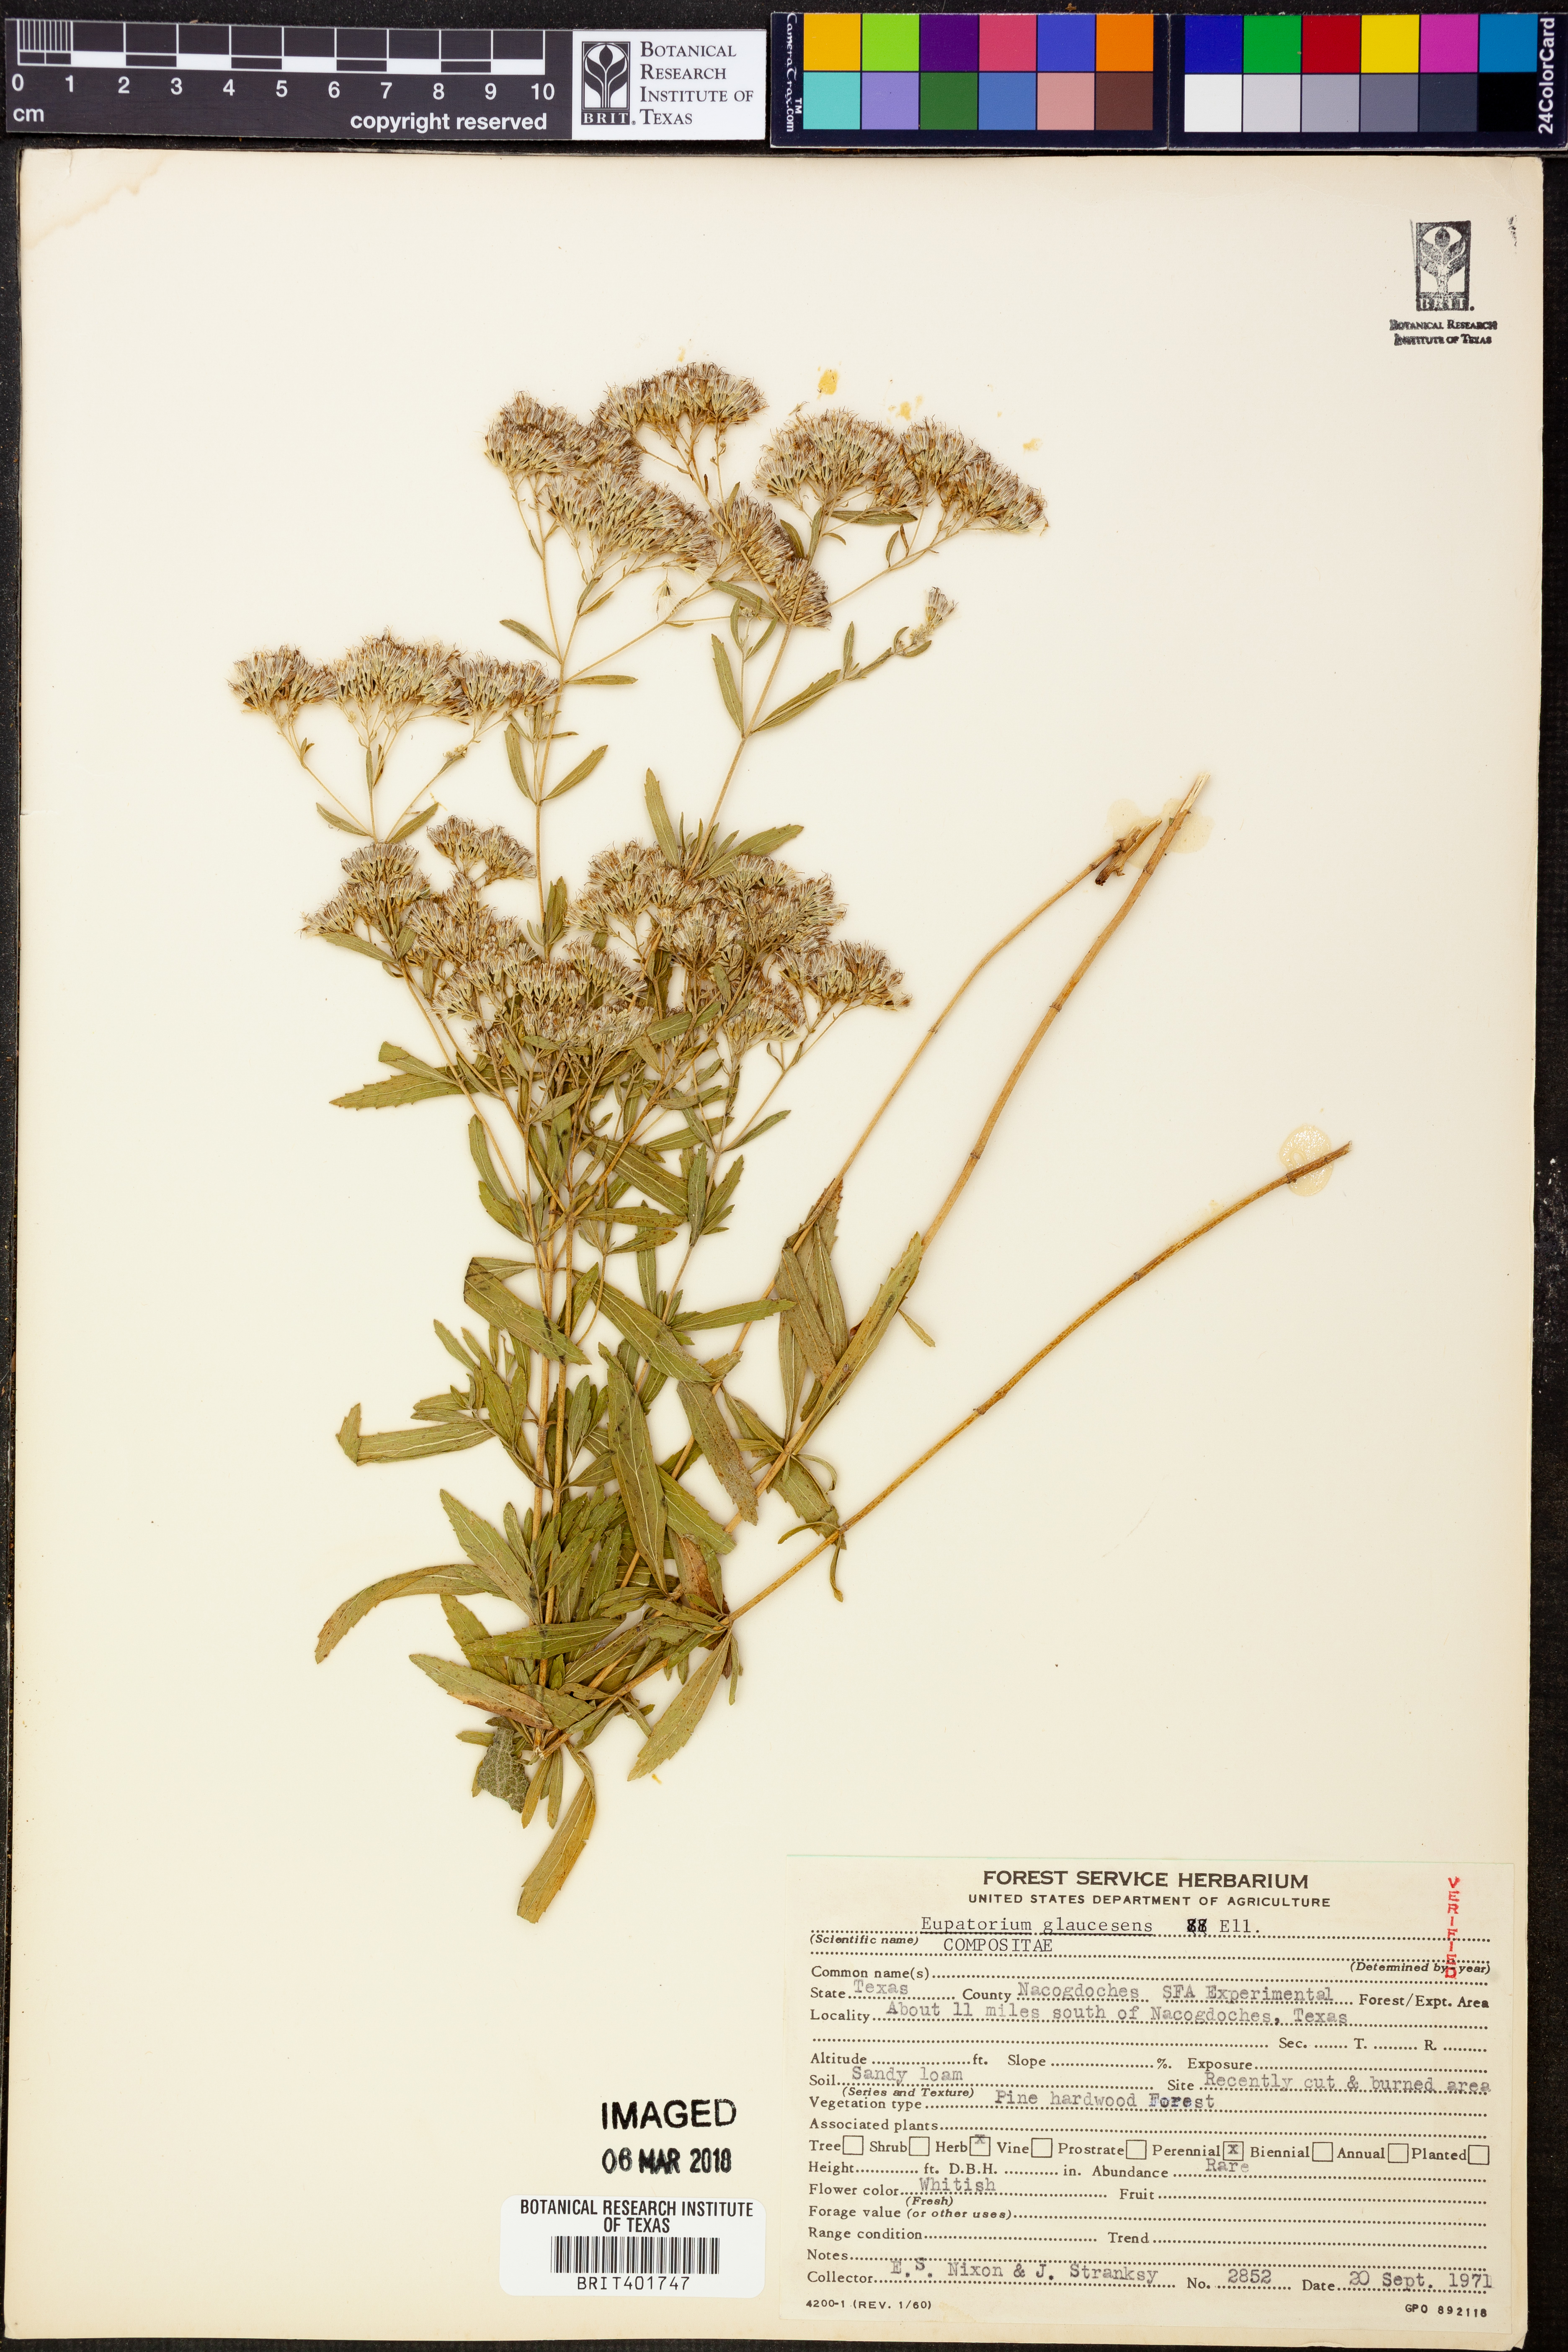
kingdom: Plantae
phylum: Tracheophyta
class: Magnoliopsida
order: Asterales
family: Asteraceae
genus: Eupatorium
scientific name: Eupatorium linearifolium
